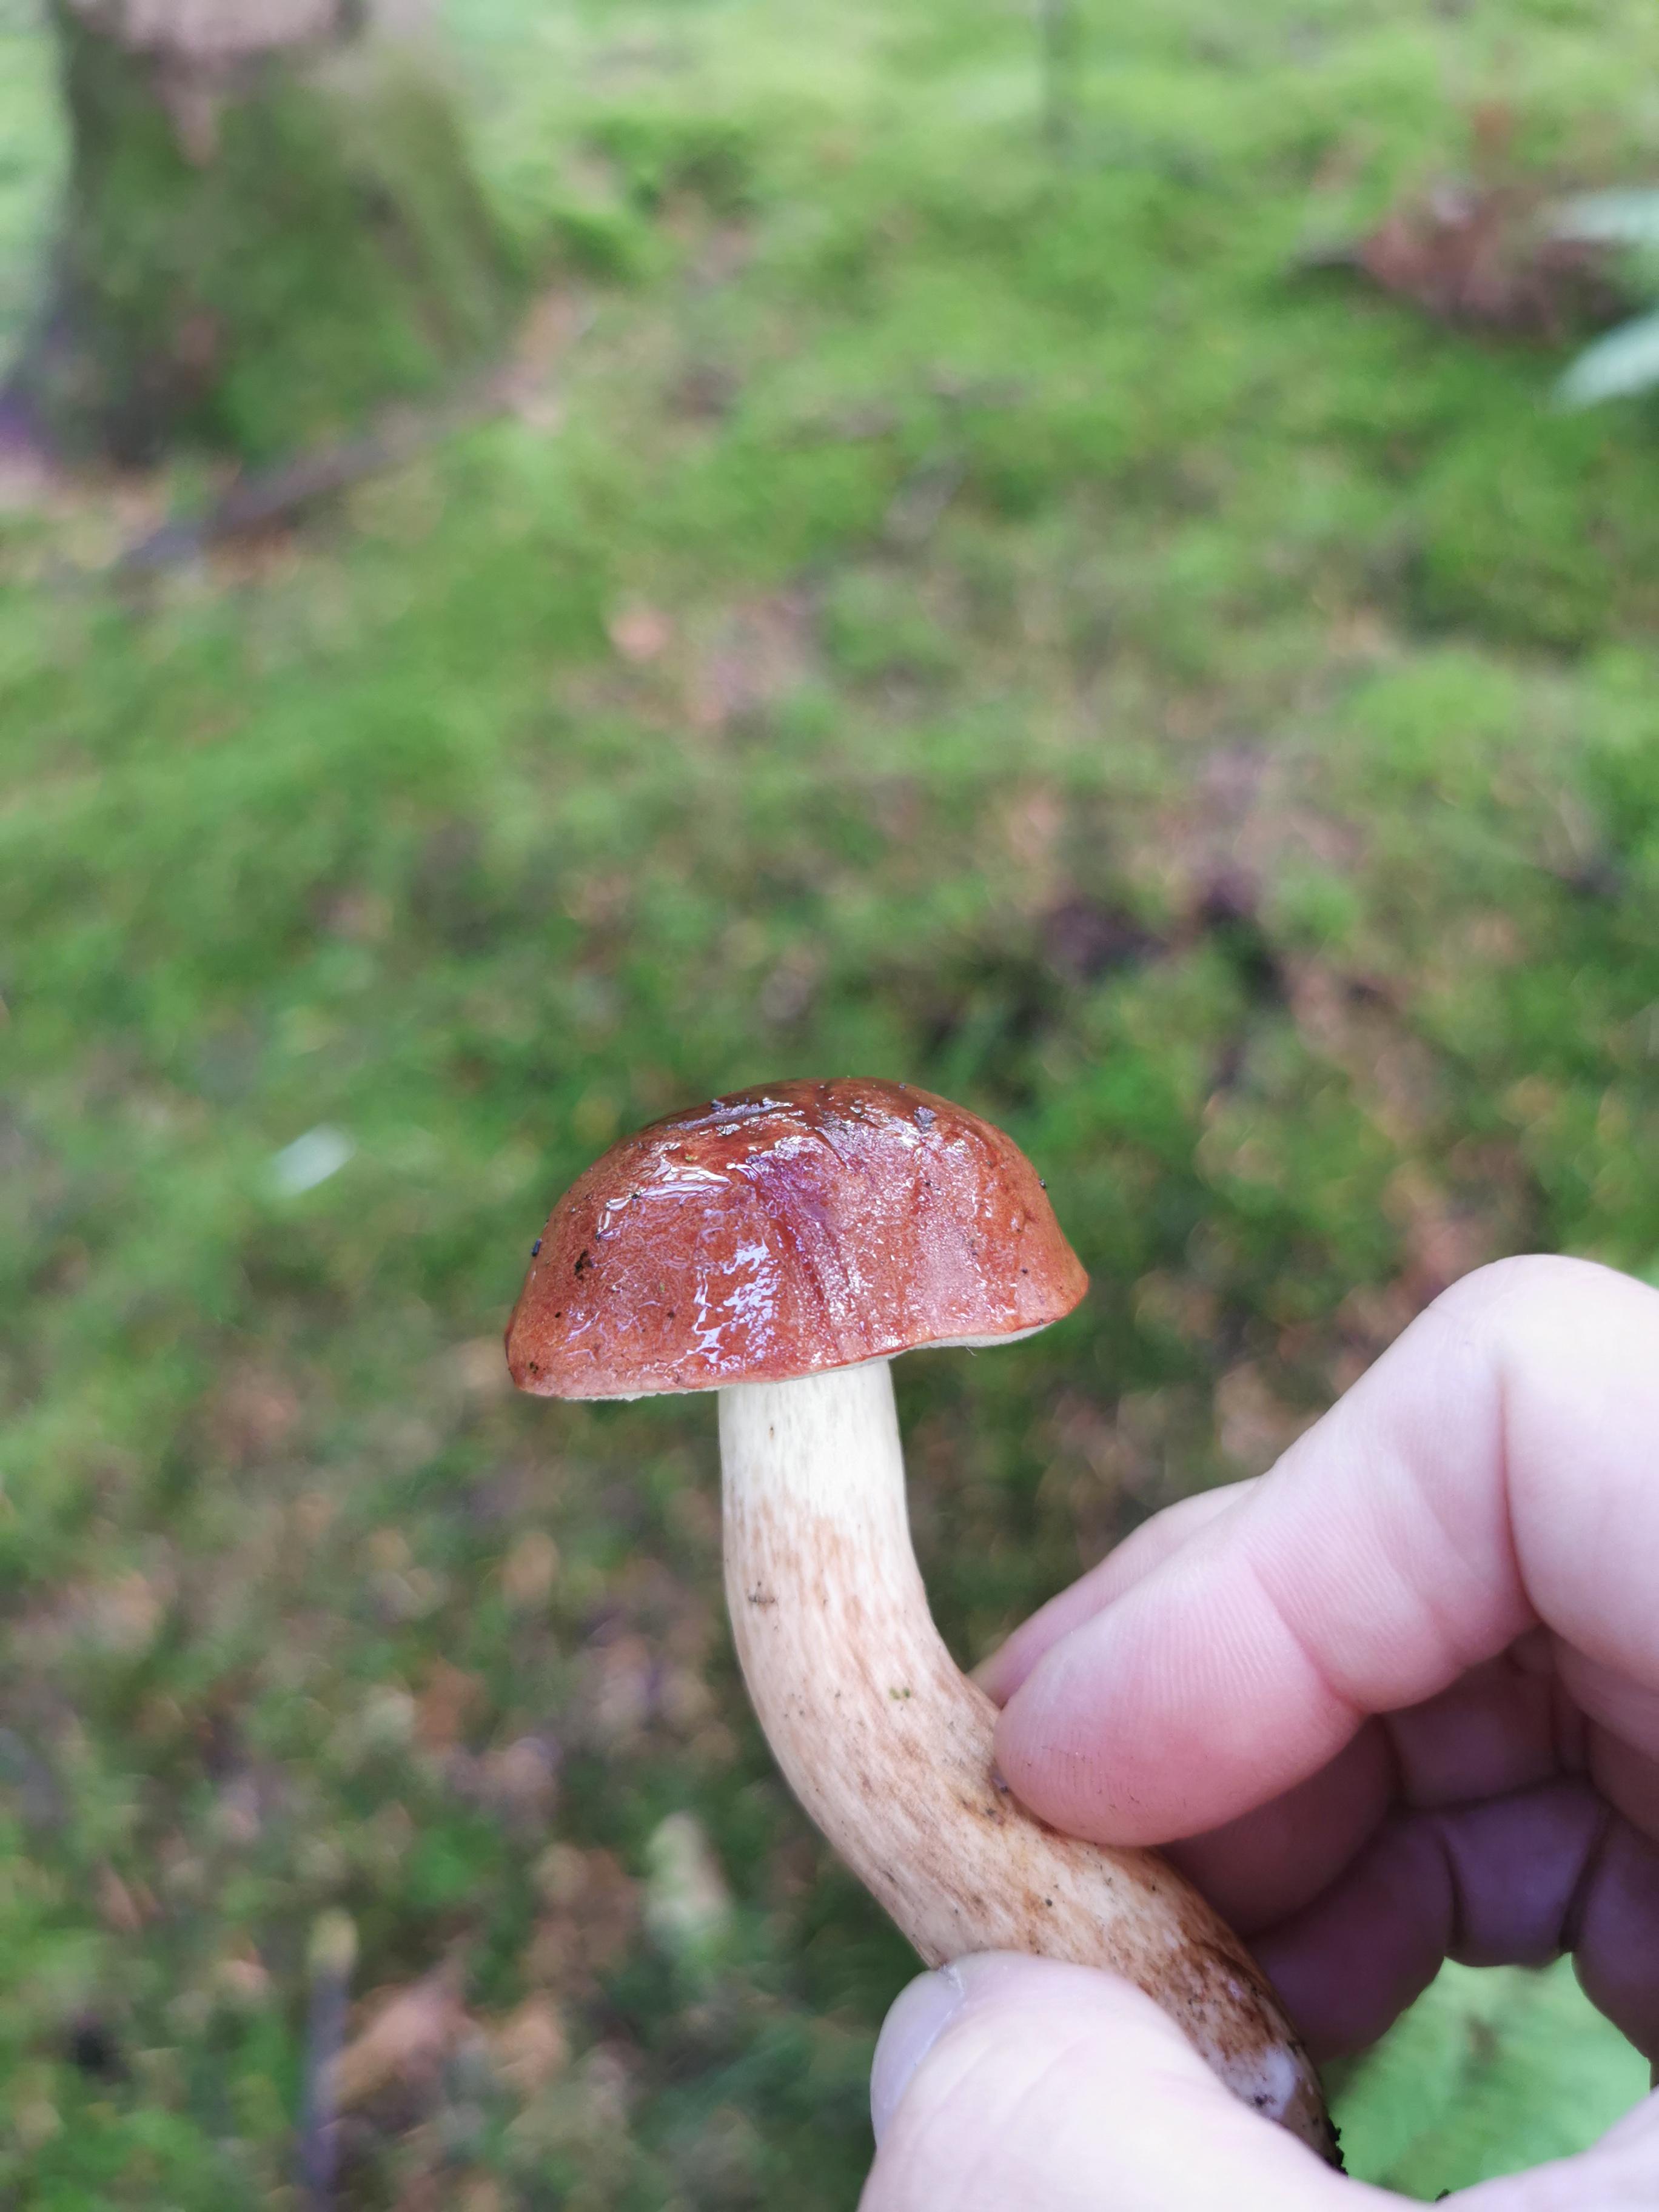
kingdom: Fungi
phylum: Basidiomycota
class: Agaricomycetes
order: Boletales
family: Boletaceae
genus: Imleria
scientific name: Imleria badia
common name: brunstokket rørhat
